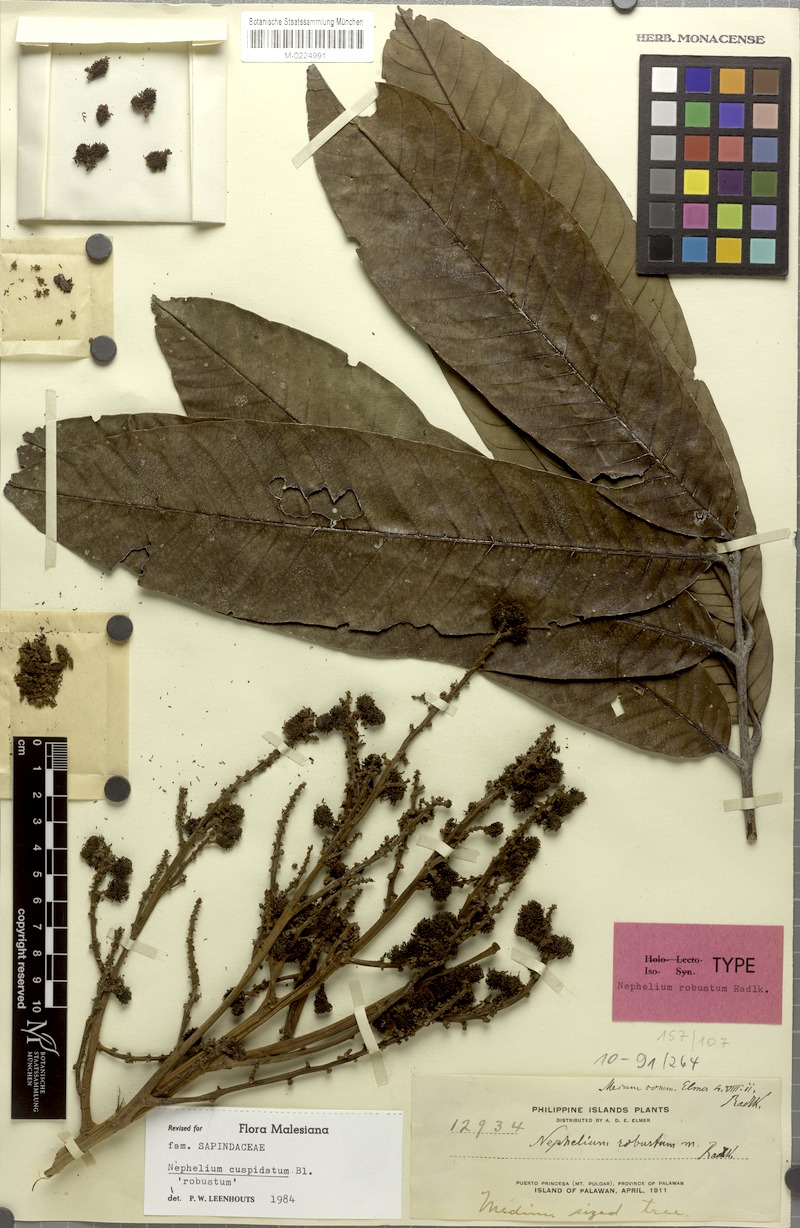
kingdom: Plantae
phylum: Tracheophyta
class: Magnoliopsida
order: Sapindales
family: Sapindaceae
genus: Nephelium
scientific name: Nephelium cuspidatum
